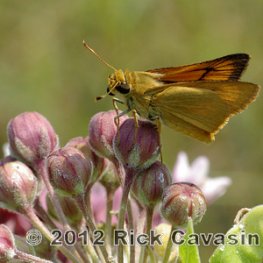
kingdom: Animalia
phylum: Arthropoda
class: Insecta
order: Lepidoptera
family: Hesperiidae
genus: Atrytone
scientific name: Atrytone delaware
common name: Delaware Skipper
